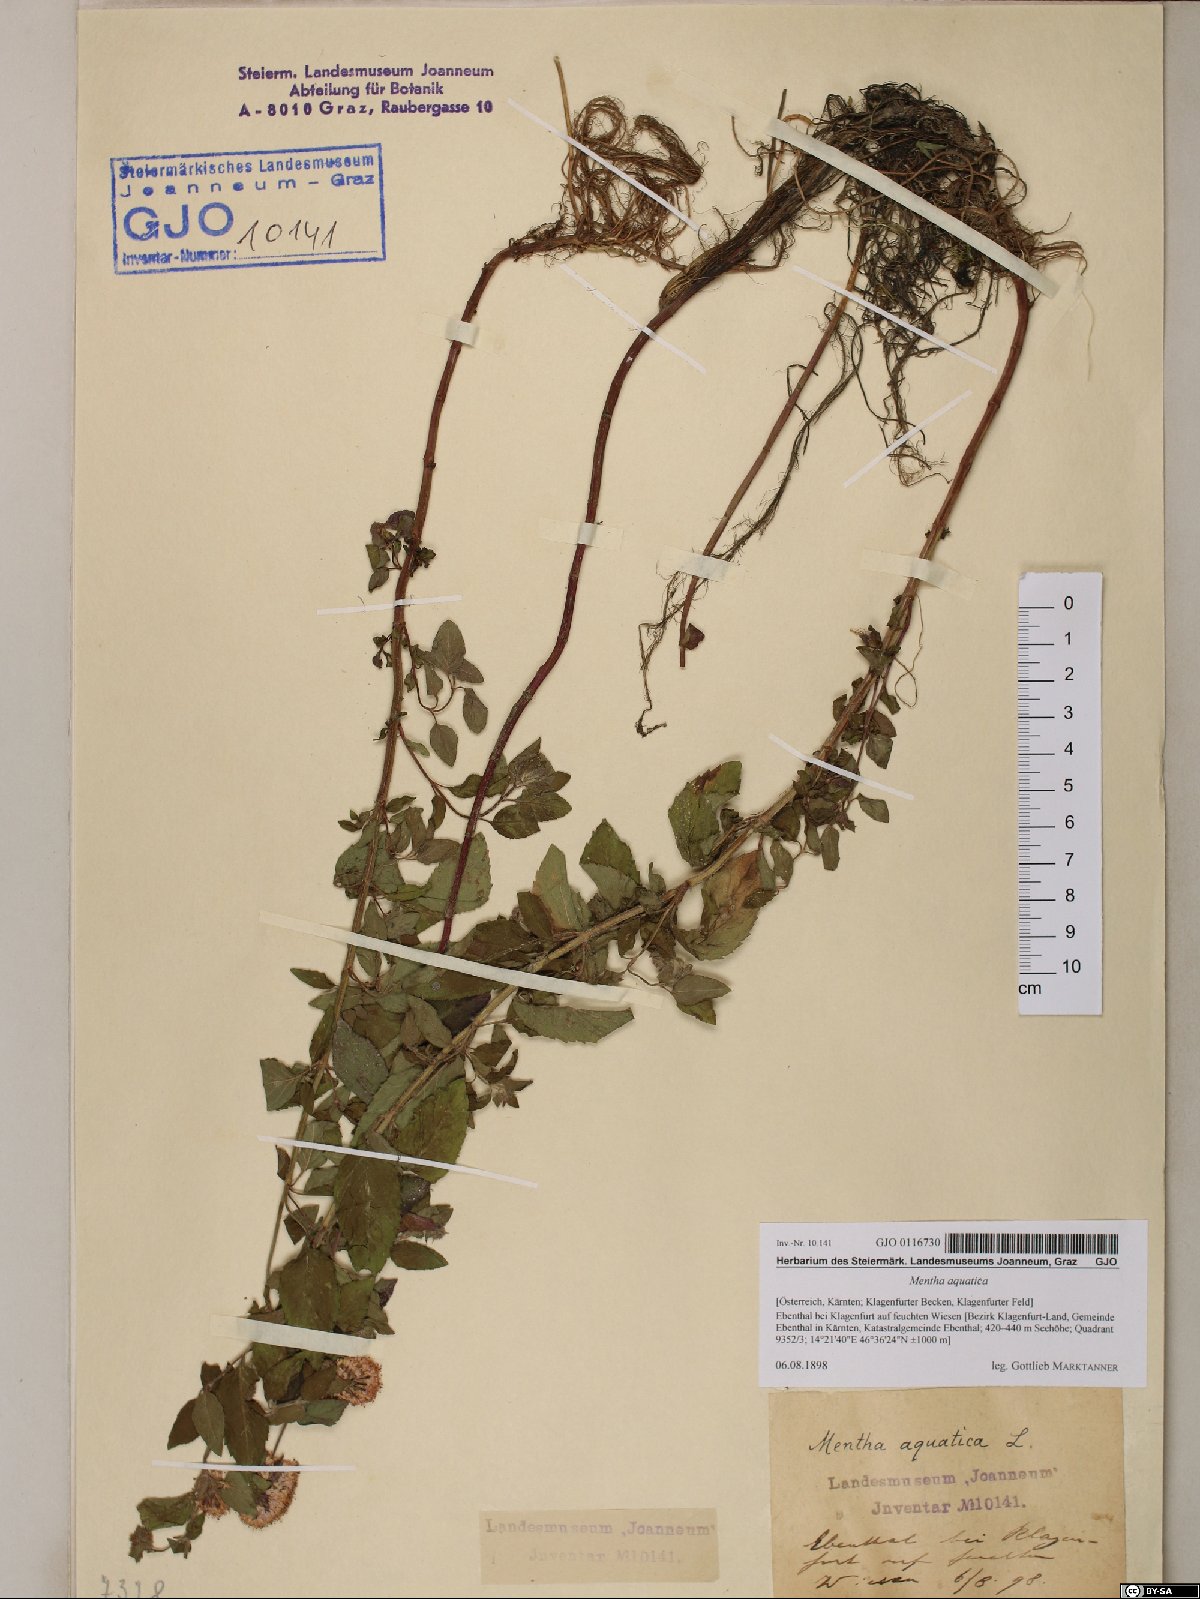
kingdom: Plantae
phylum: Tracheophyta
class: Magnoliopsida
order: Lamiales
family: Lamiaceae
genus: Mentha
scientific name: Mentha aquatica
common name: Water mint
